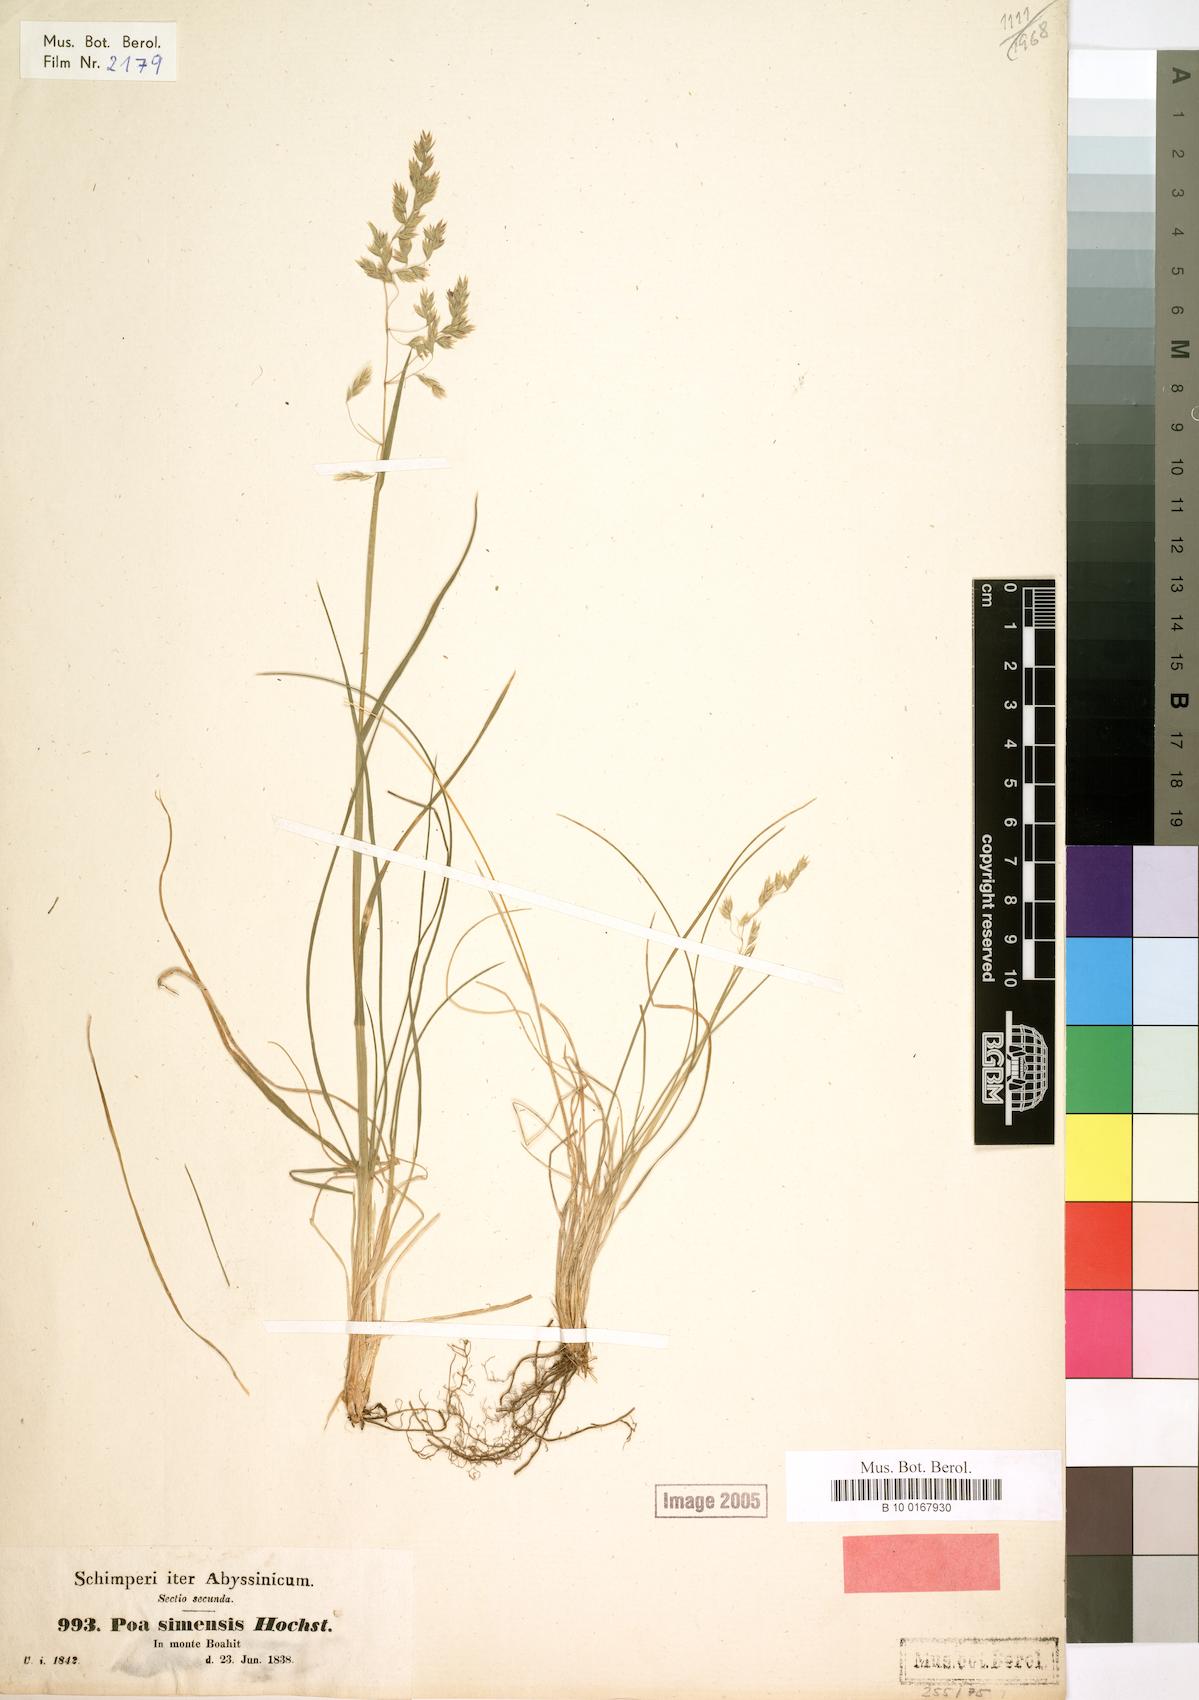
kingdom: Plantae
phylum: Tracheophyta
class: Liliopsida
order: Poales
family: Poaceae
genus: Poa
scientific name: Poa simensis
